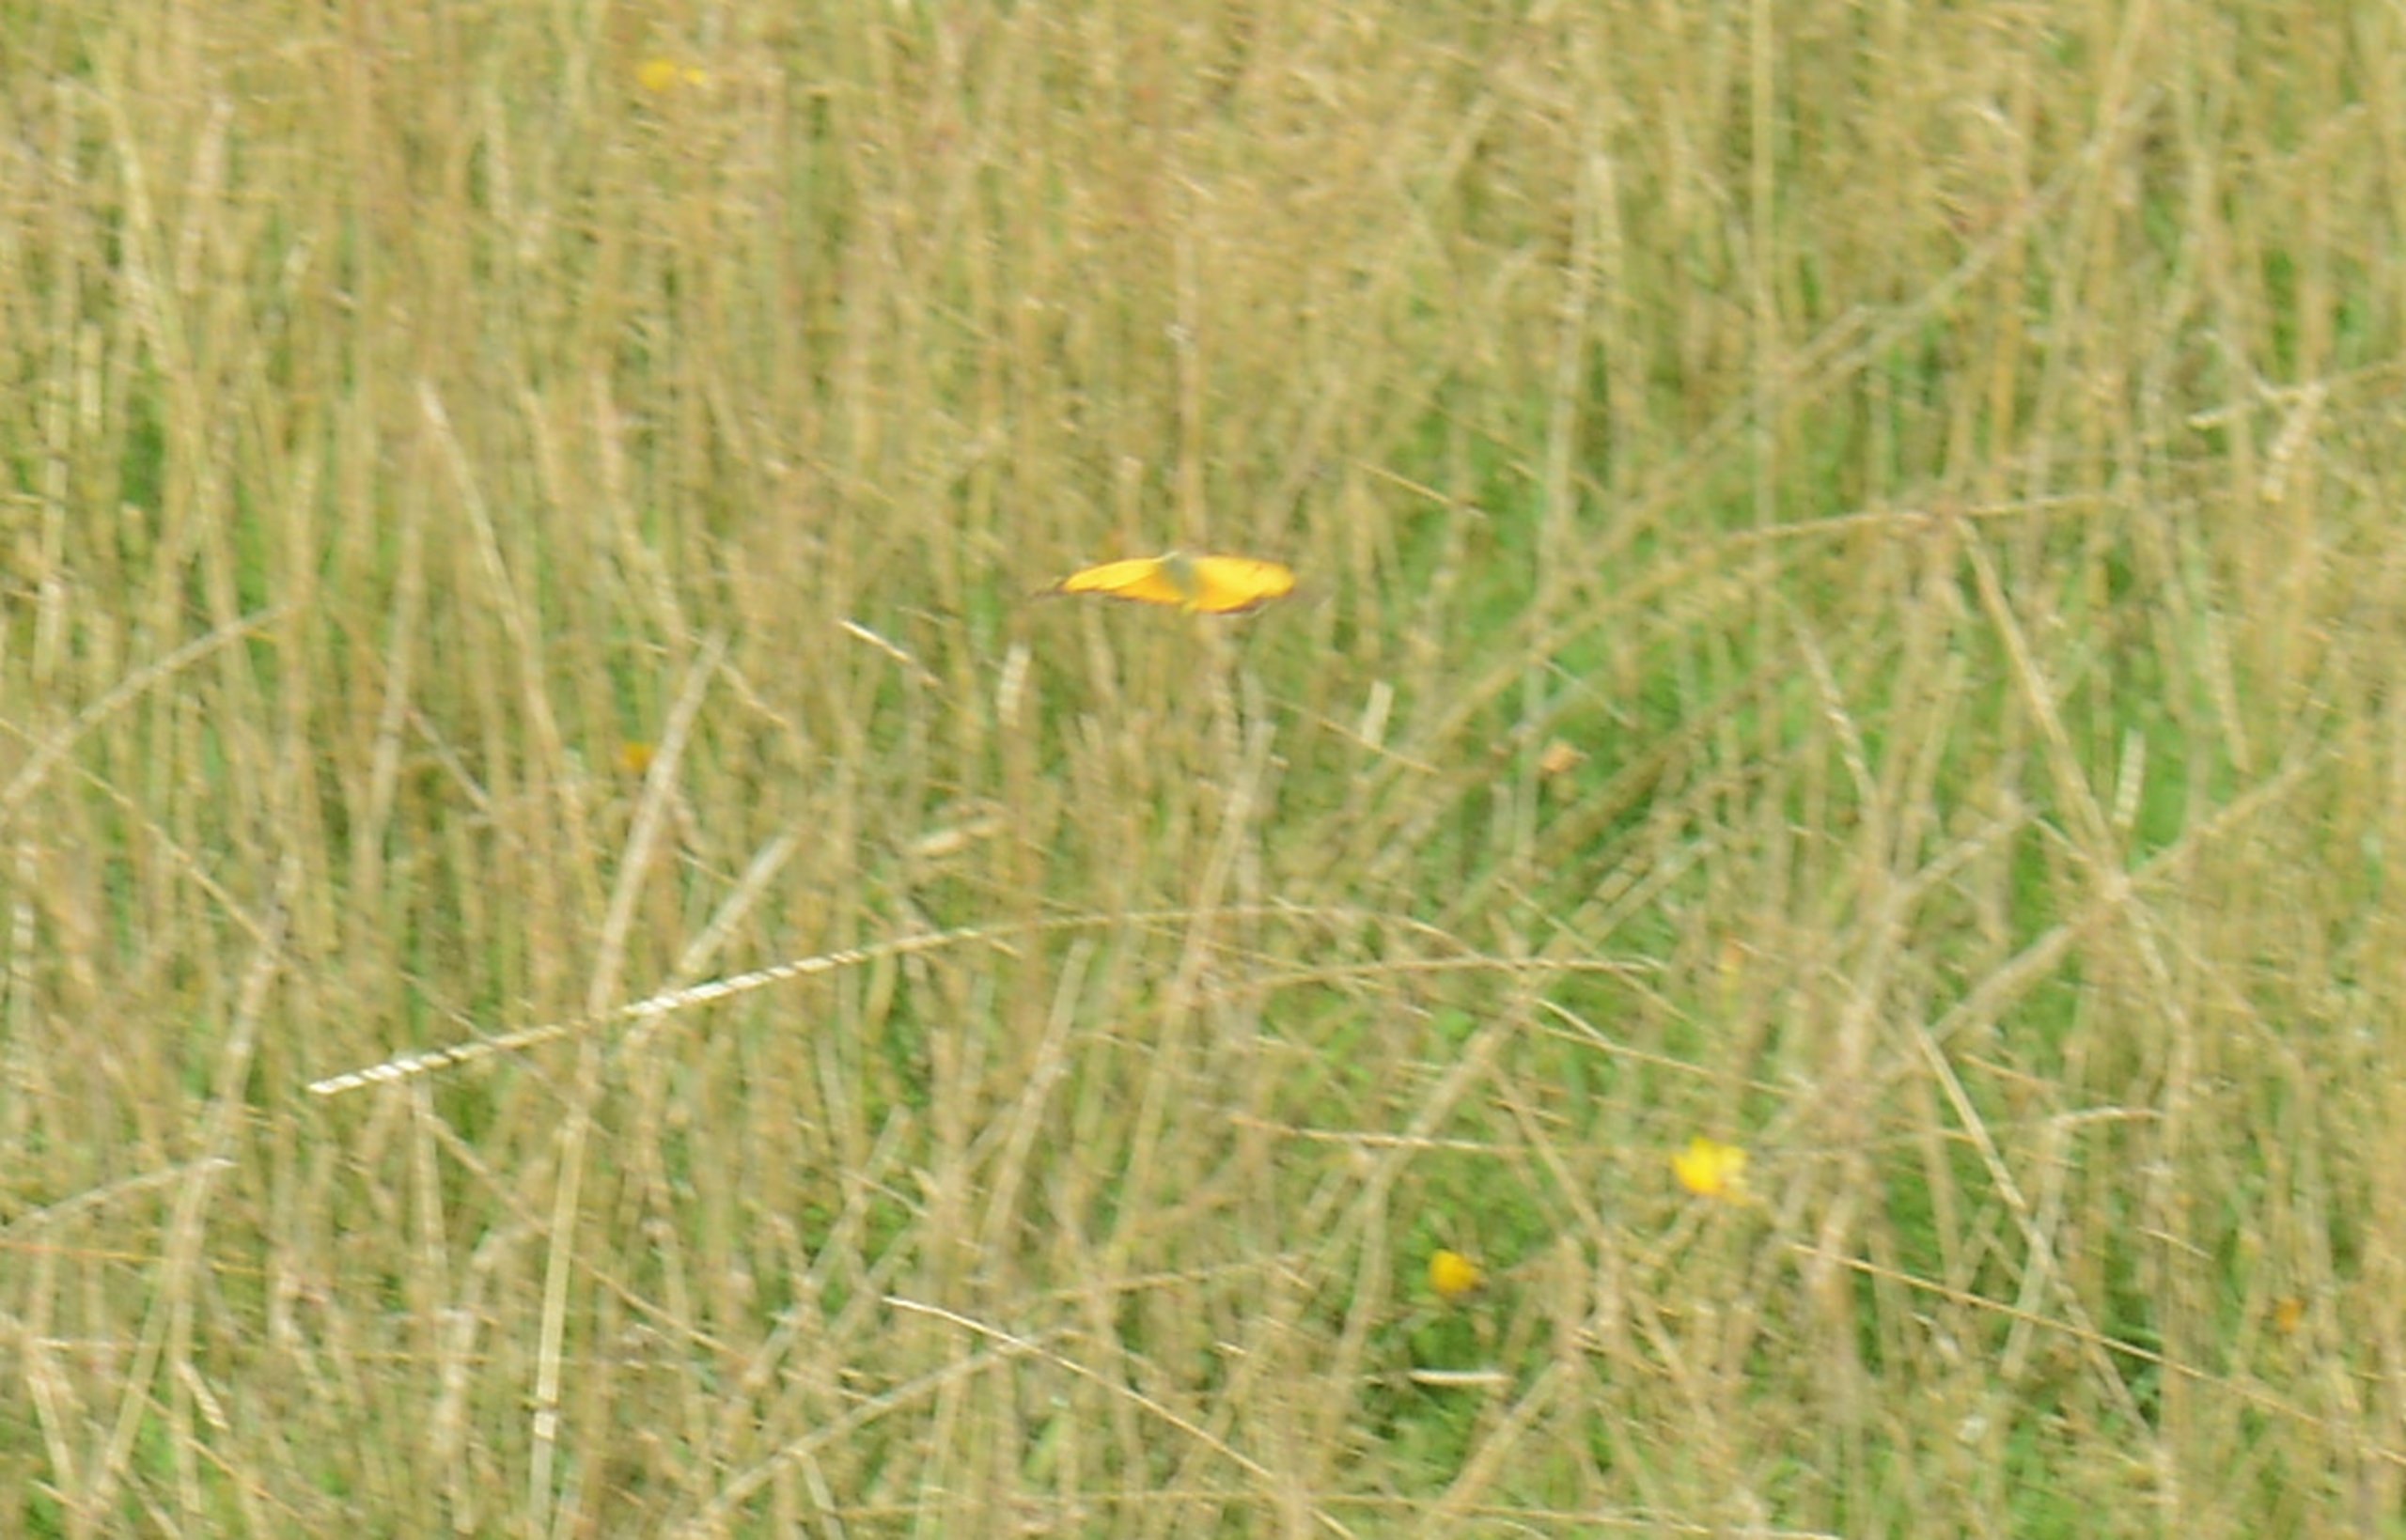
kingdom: Animalia
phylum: Arthropoda
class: Insecta
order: Lepidoptera
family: Pieridae
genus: Colias
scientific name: Colias croceus
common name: Orange høsommerfugl
